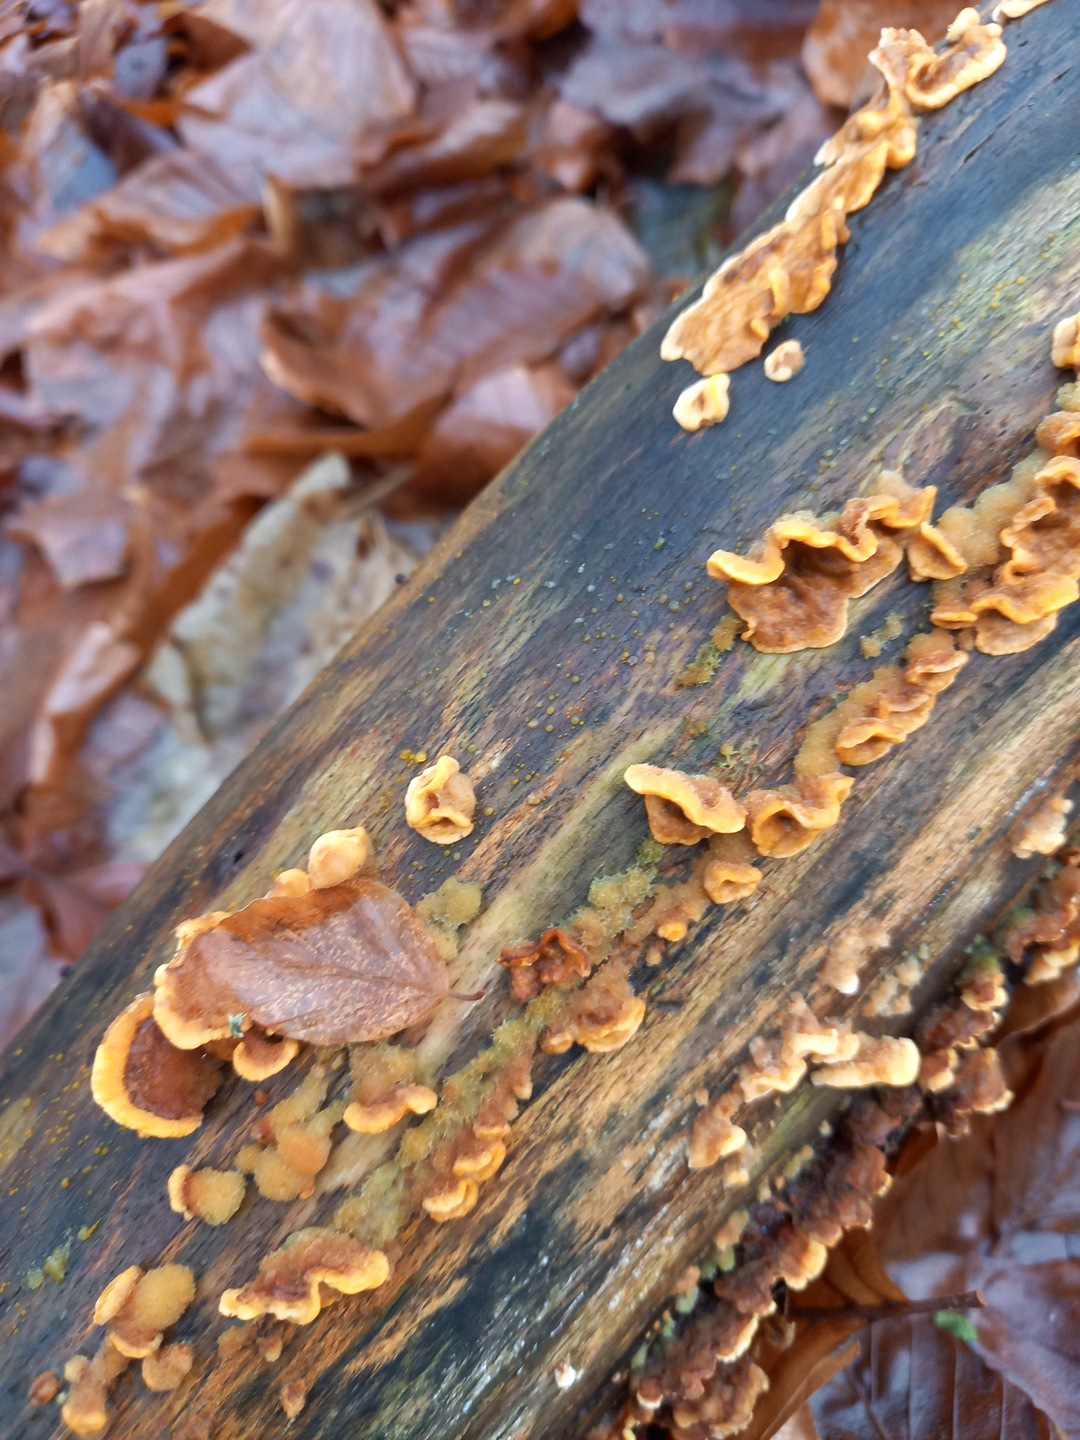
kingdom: Fungi
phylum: Basidiomycota
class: Agaricomycetes
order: Russulales
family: Stereaceae
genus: Stereum
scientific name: Stereum hirsutum
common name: håret lædersvamp
